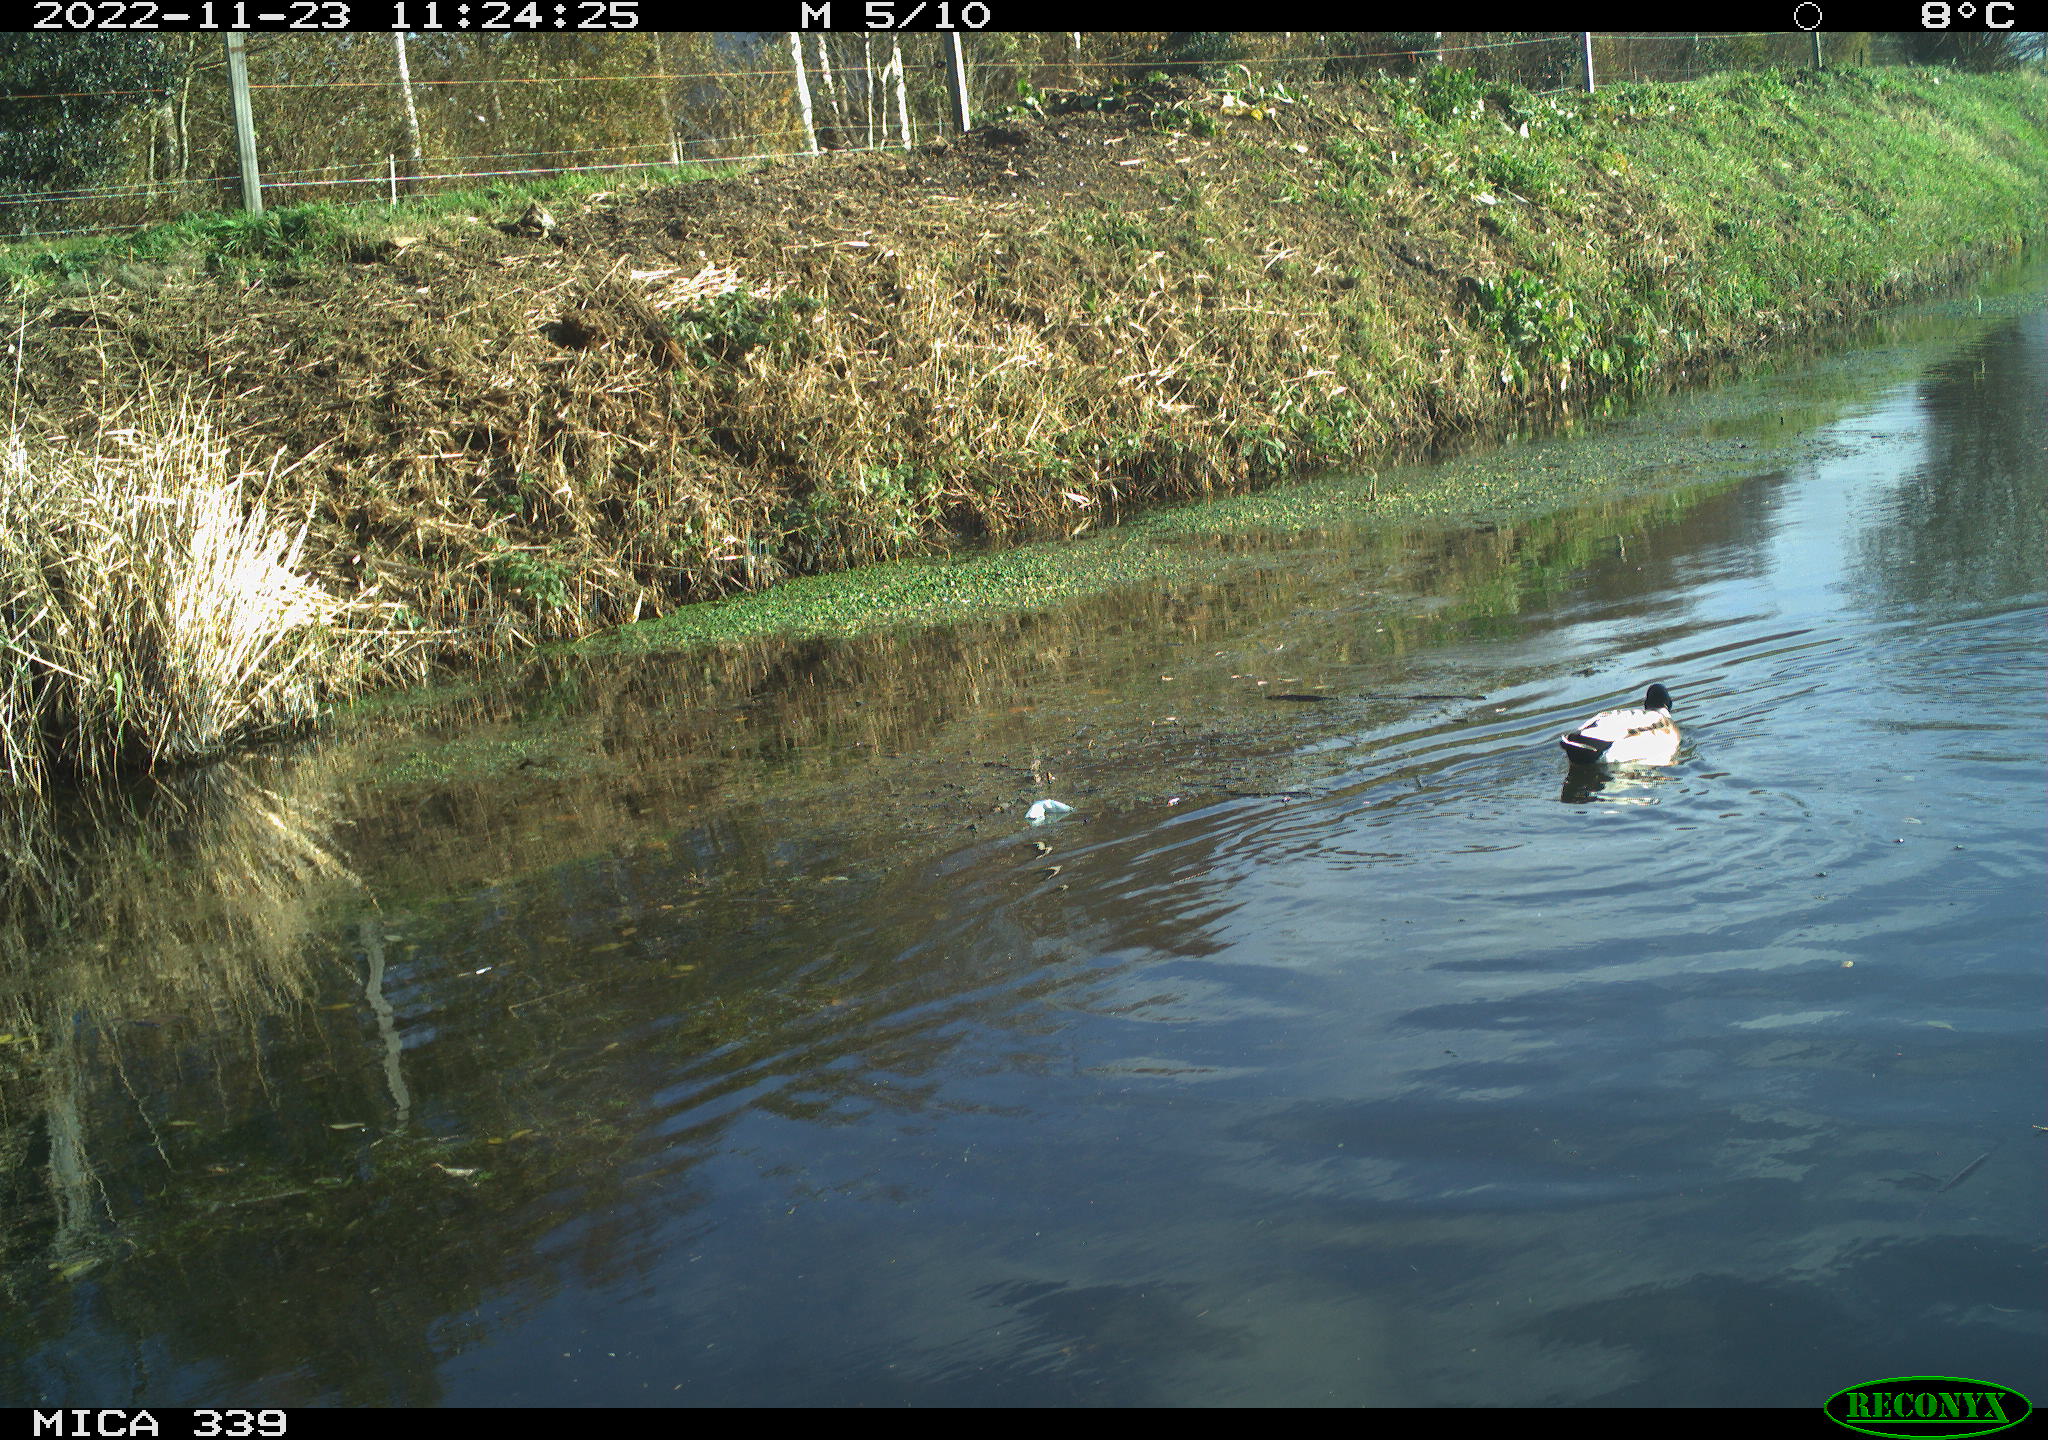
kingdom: Animalia
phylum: Chordata
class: Aves
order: Anseriformes
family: Anatidae
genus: Anas
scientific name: Anas platyrhynchos
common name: Mallard
